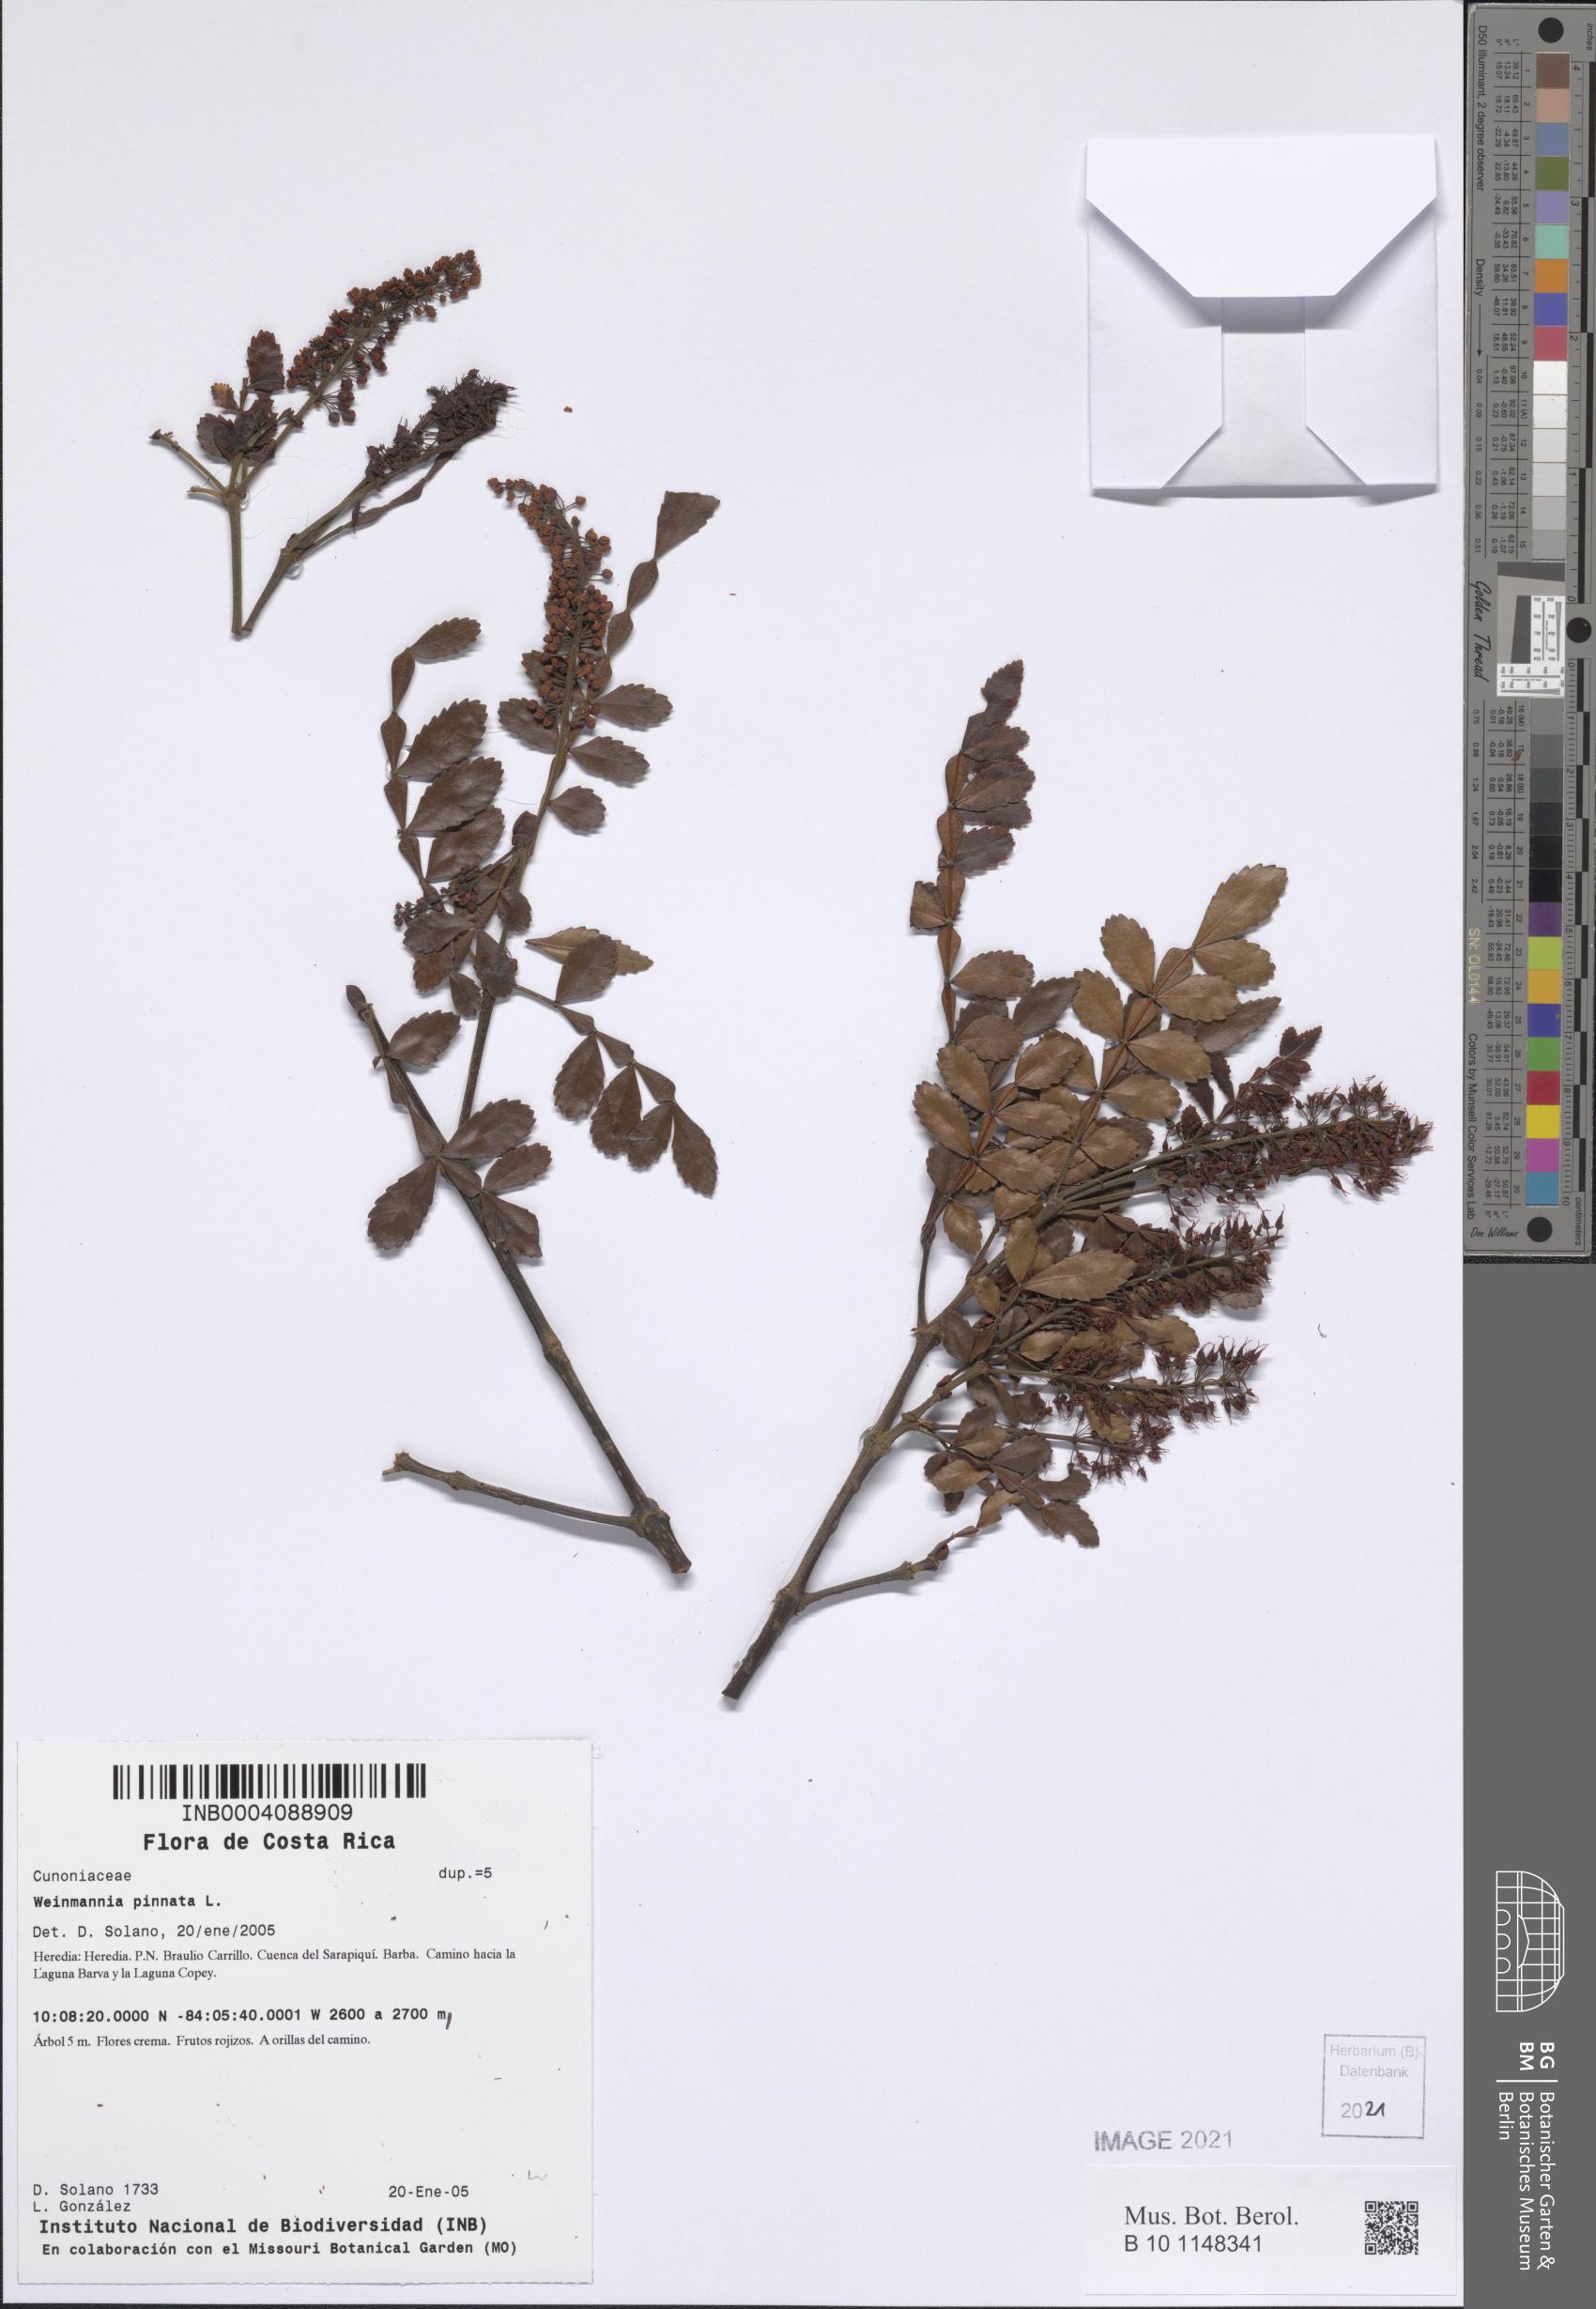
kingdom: Plantae
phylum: Tracheophyta
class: Magnoliopsida
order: Oxalidales
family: Cunoniaceae
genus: Weinmannia
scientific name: Weinmannia pinnata
